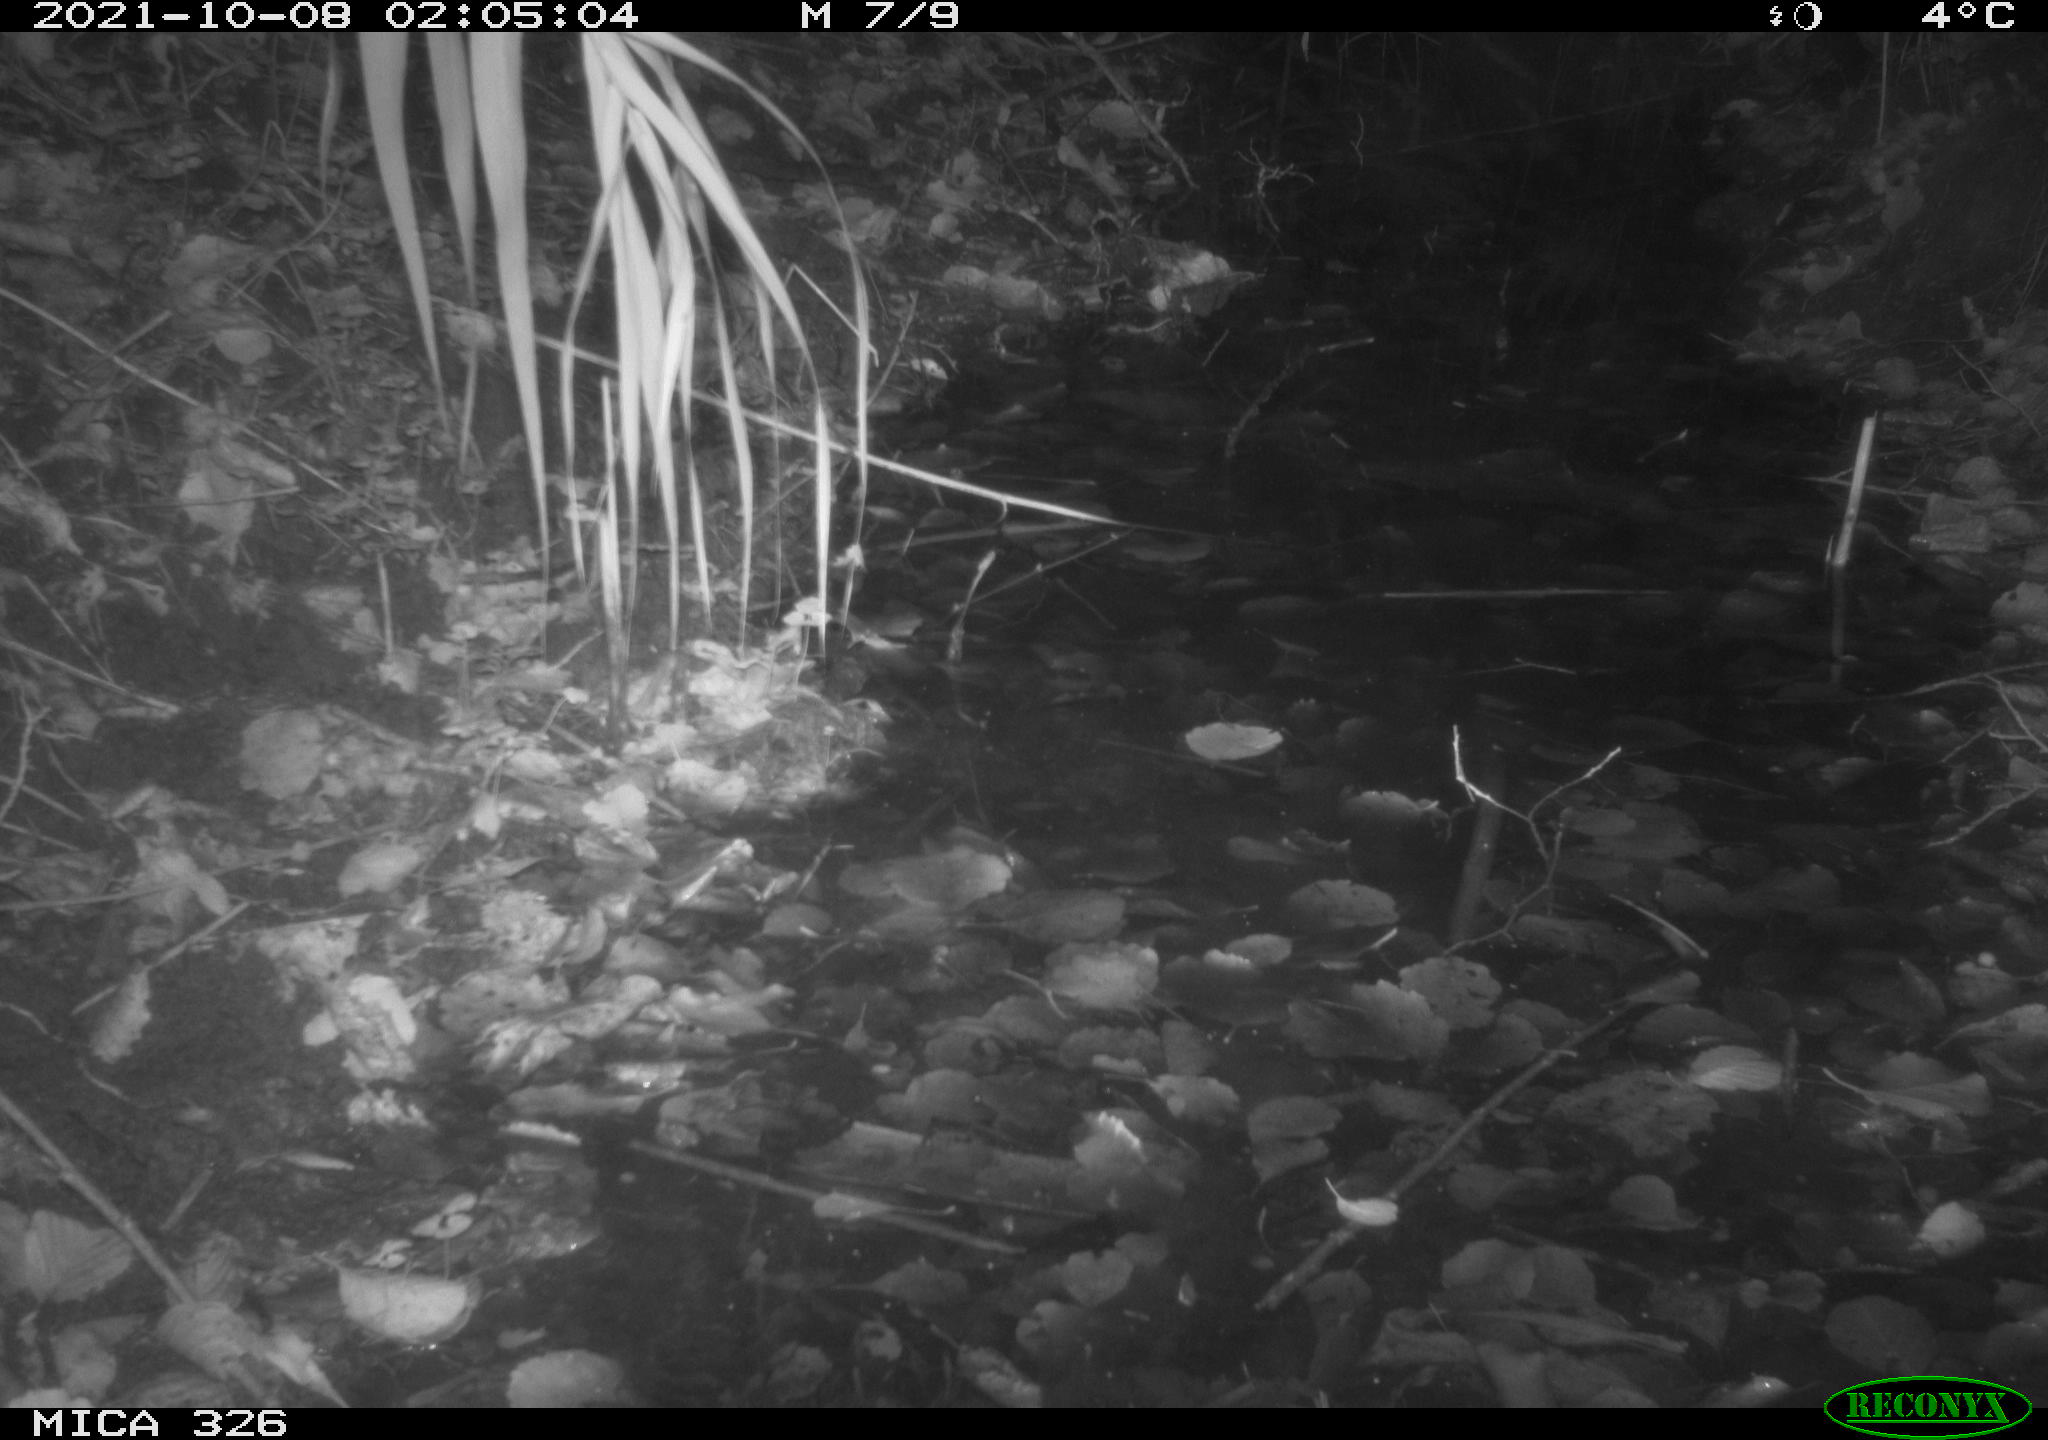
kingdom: Animalia
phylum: Chordata
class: Mammalia
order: Rodentia
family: Cricetidae
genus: Ondatra
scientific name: Ondatra zibethicus
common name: Muskrat
